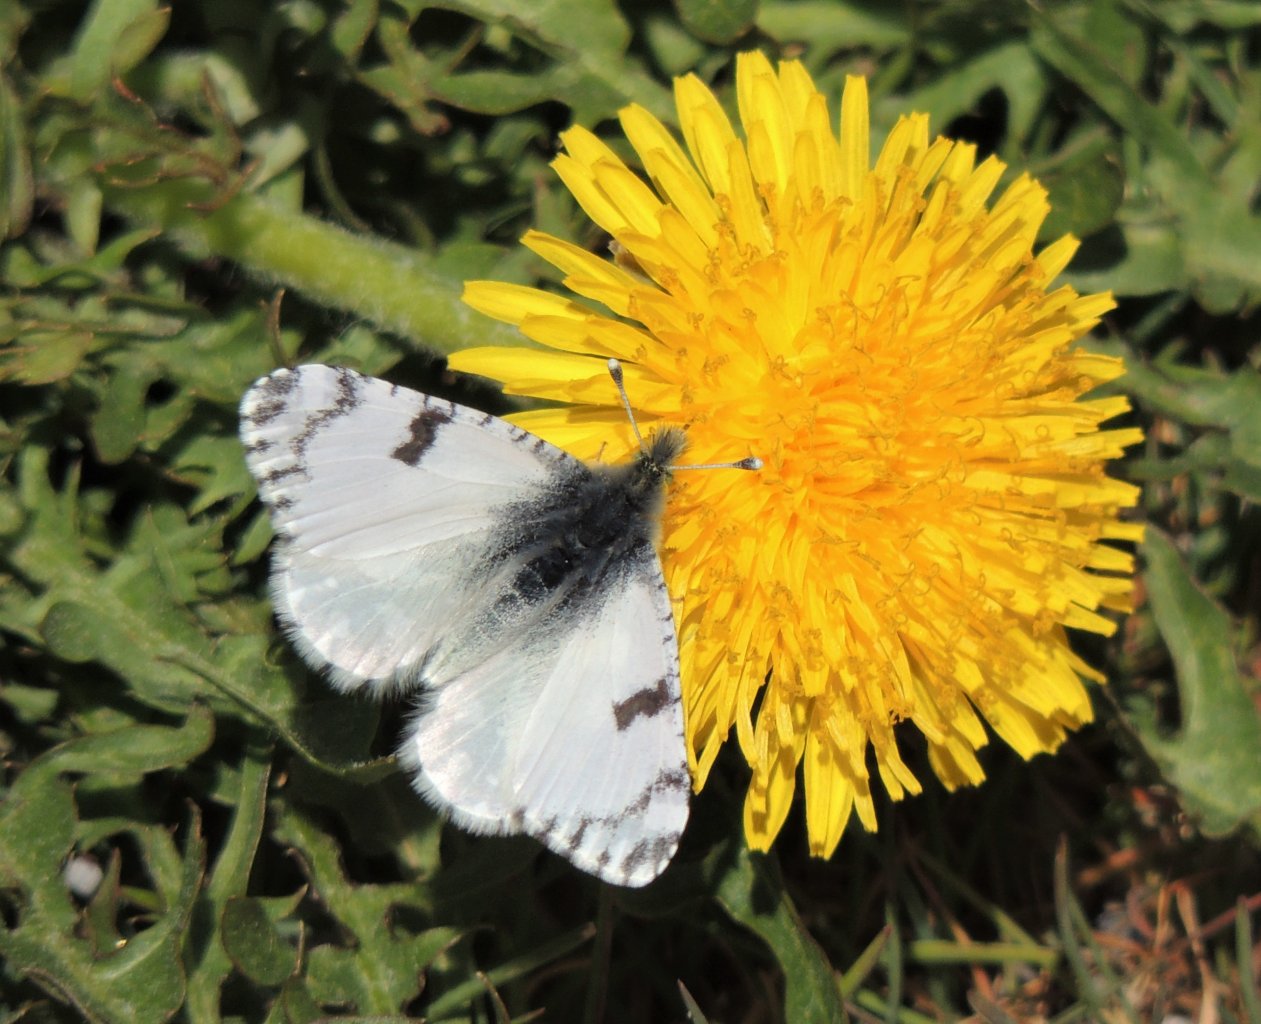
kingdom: Animalia
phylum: Arthropoda
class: Insecta
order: Lepidoptera
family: Pieridae
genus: Euchloe
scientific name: Euchloe lotta
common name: Desert Marble
